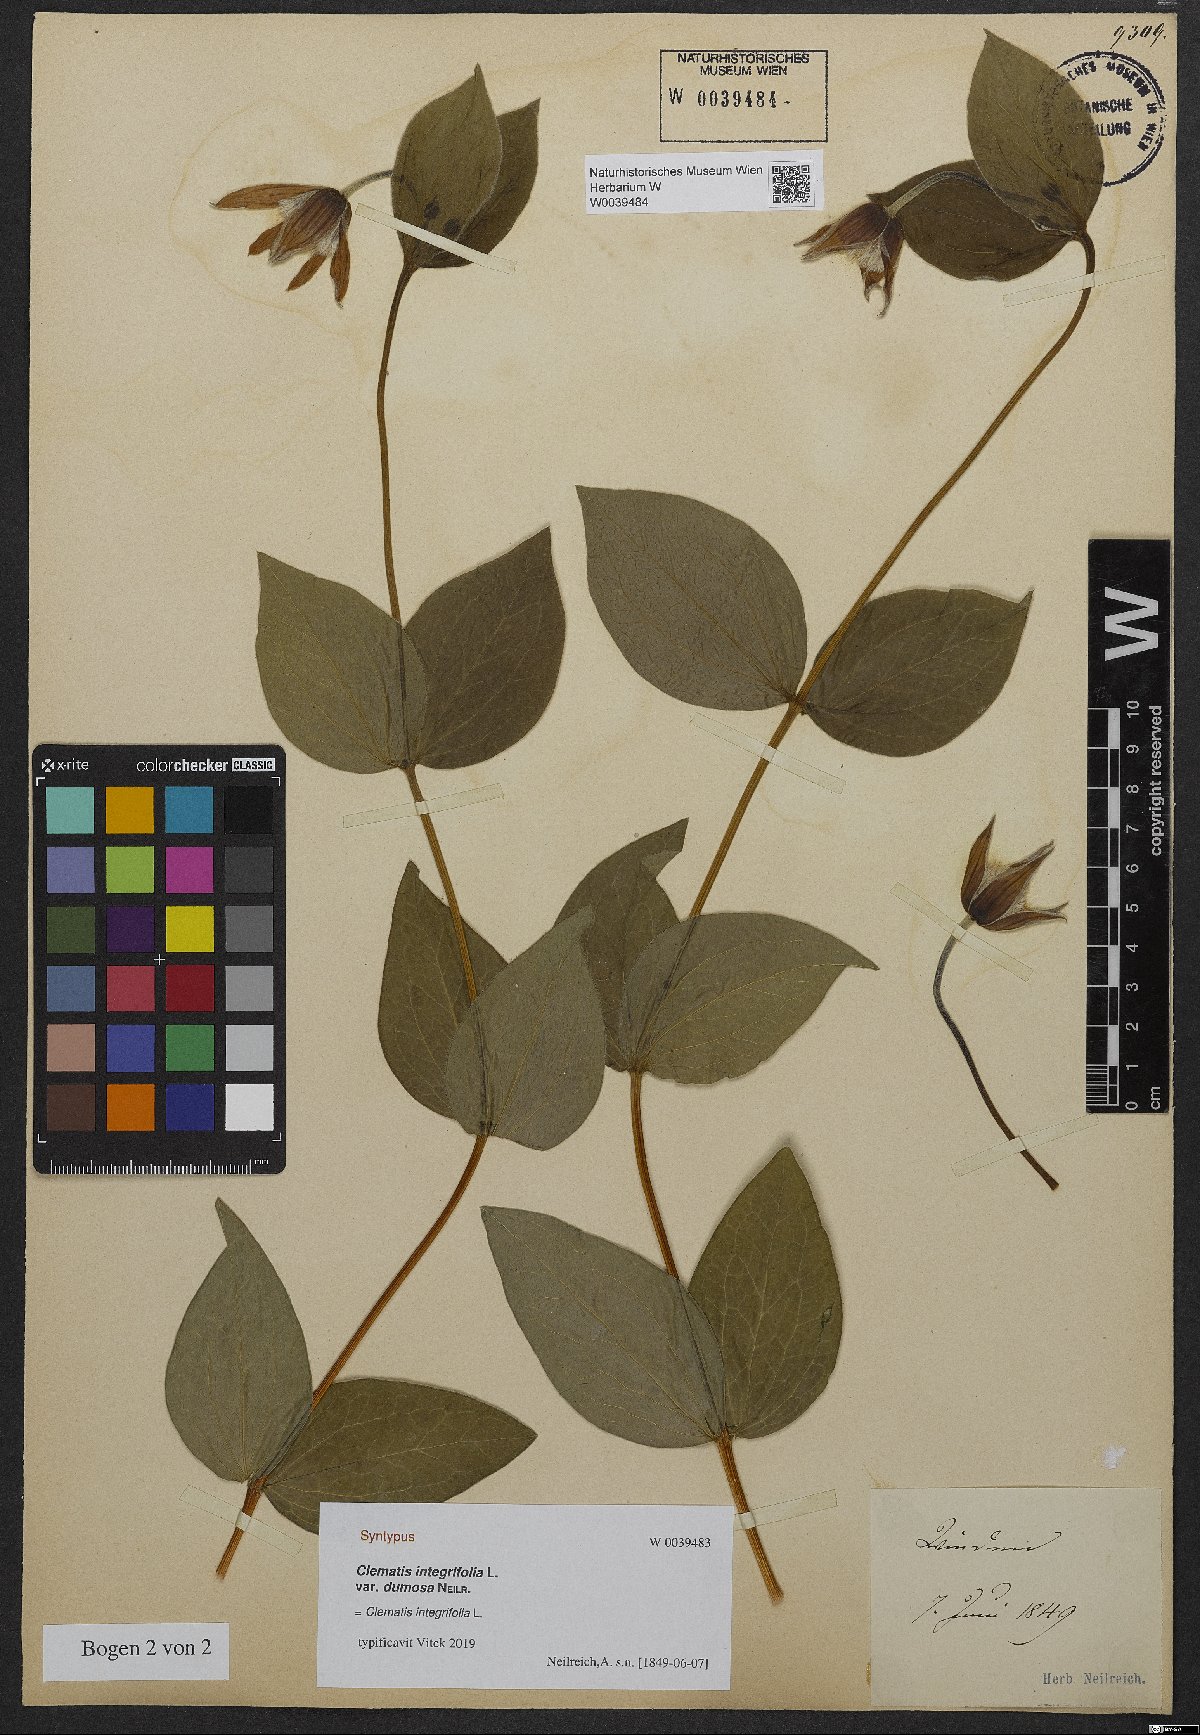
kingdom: Plantae
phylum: Tracheophyta
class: Magnoliopsida
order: Ranunculales
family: Ranunculaceae
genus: Clematis
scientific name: Clematis integrifolia
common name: Solitary clematis
